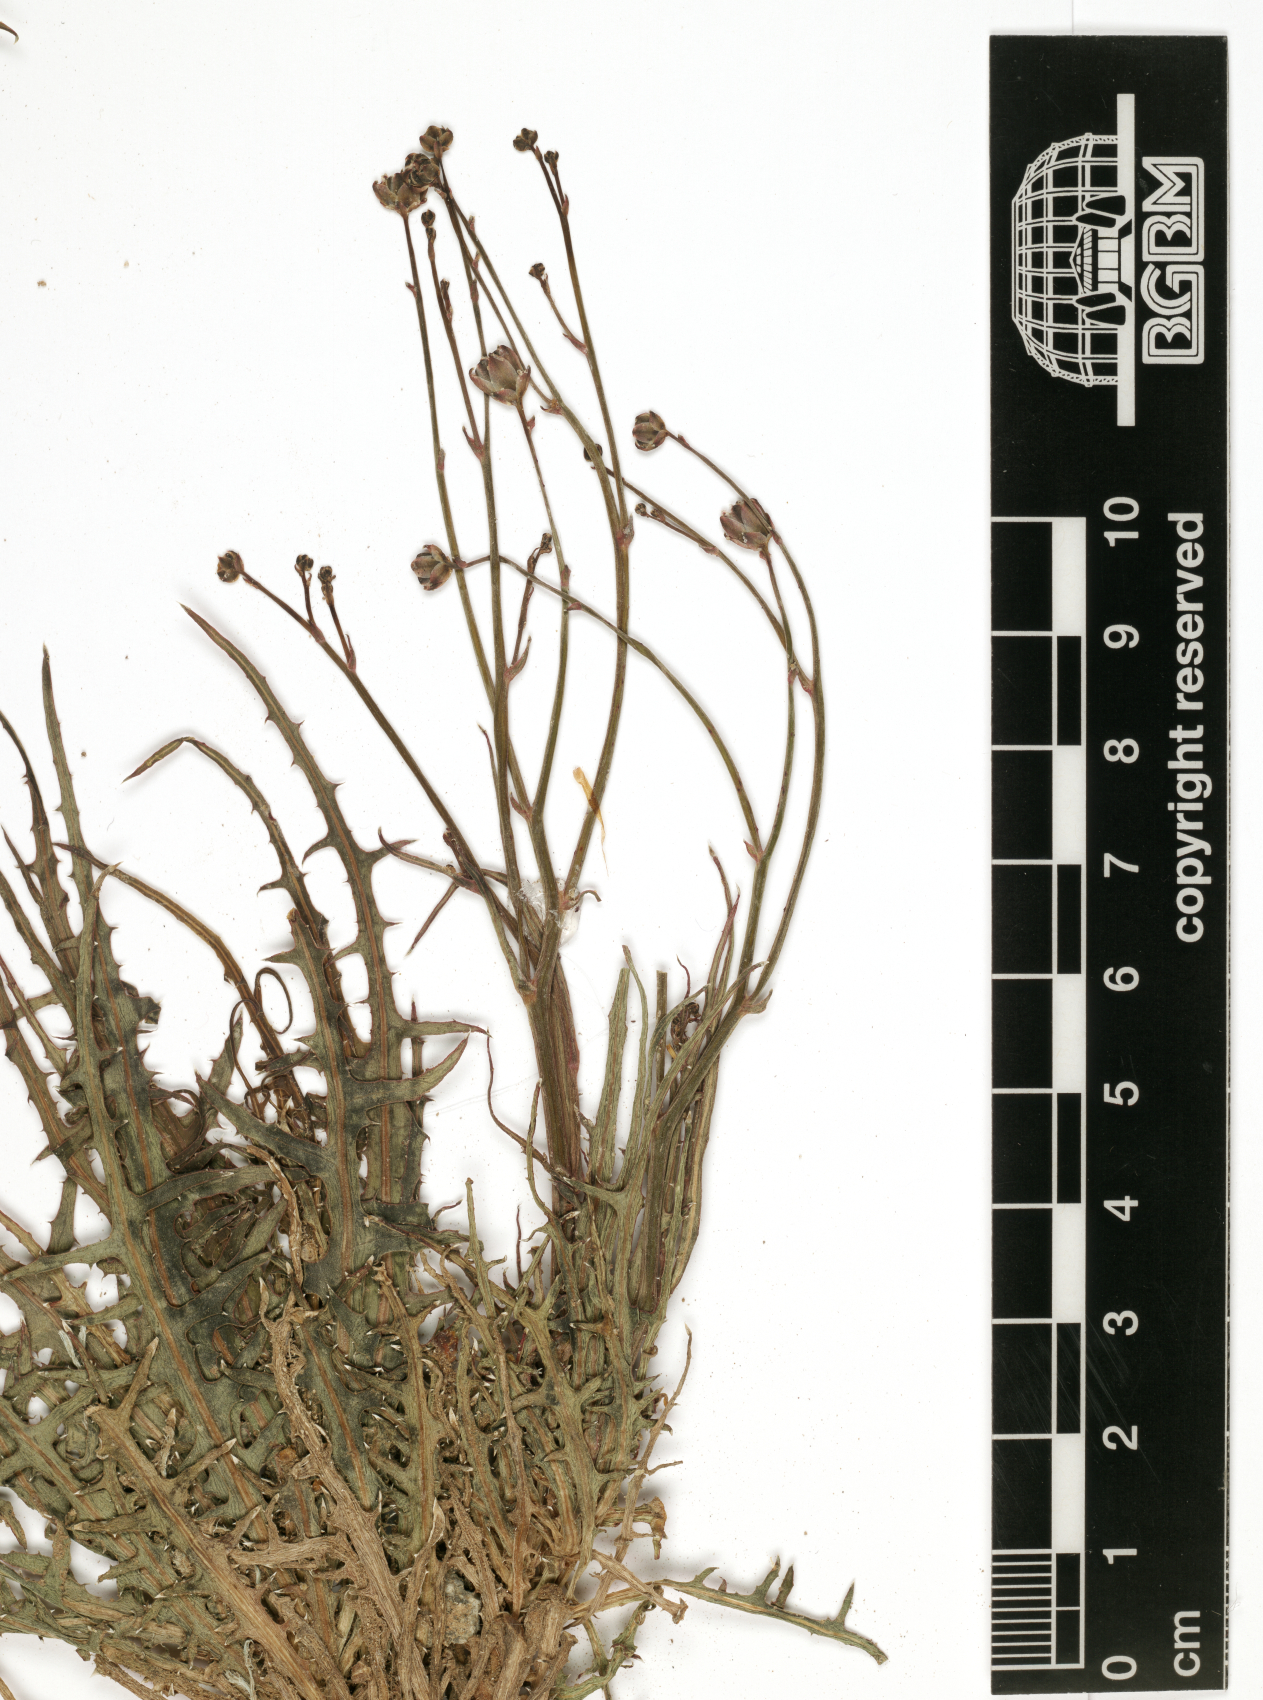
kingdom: Plantae
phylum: Tracheophyta
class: Magnoliopsida
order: Asterales
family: Asteraceae
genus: Launaea
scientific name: Launaea fragilis
